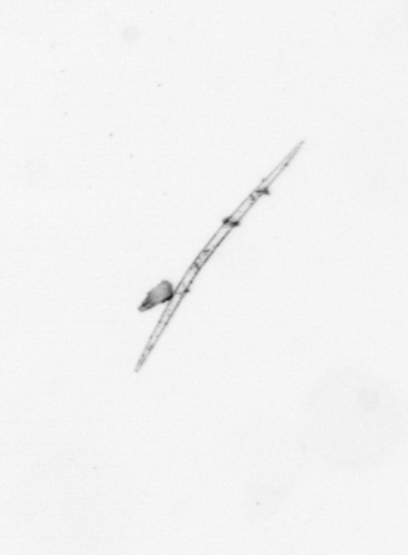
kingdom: Chromista
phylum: Ochrophyta
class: Bacillariophyceae
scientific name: Bacillariophyceae
